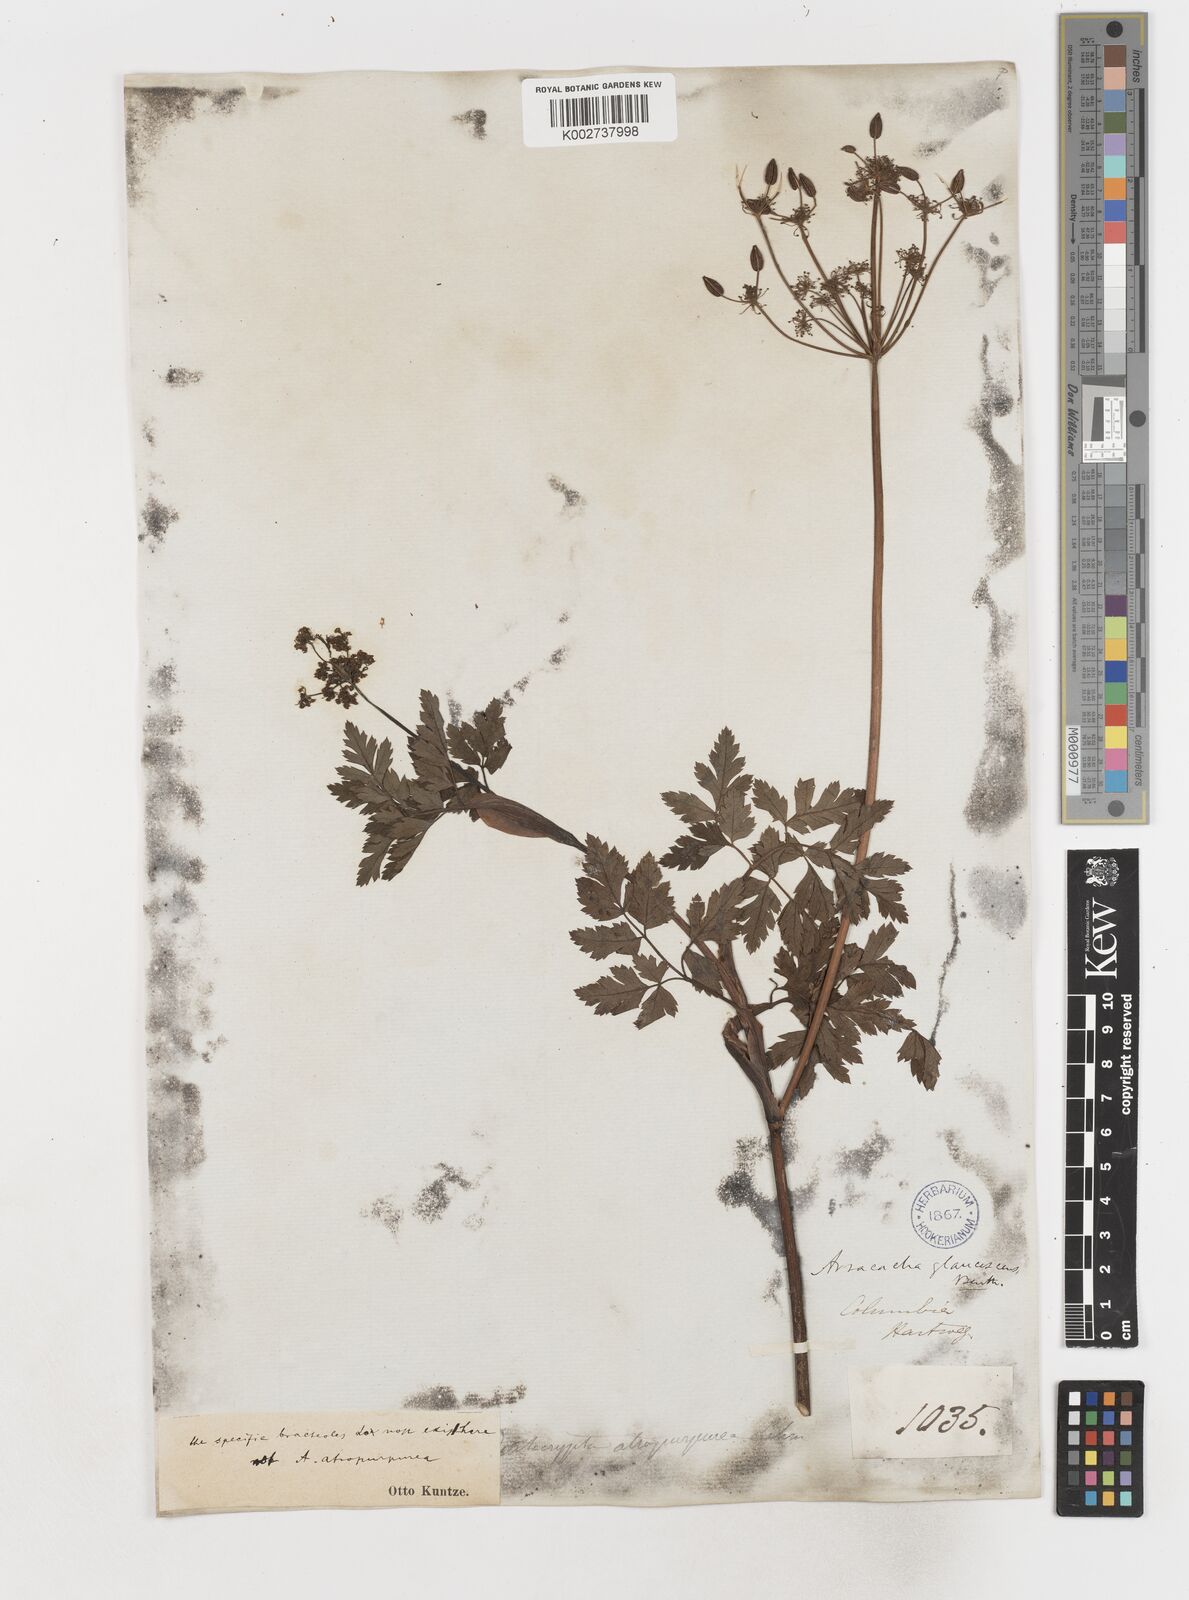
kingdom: Plantae
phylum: Tracheophyta
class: Magnoliopsida
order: Apiales
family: Apiaceae
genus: Myrrhidendron
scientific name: Myrrhidendron glaucescens
